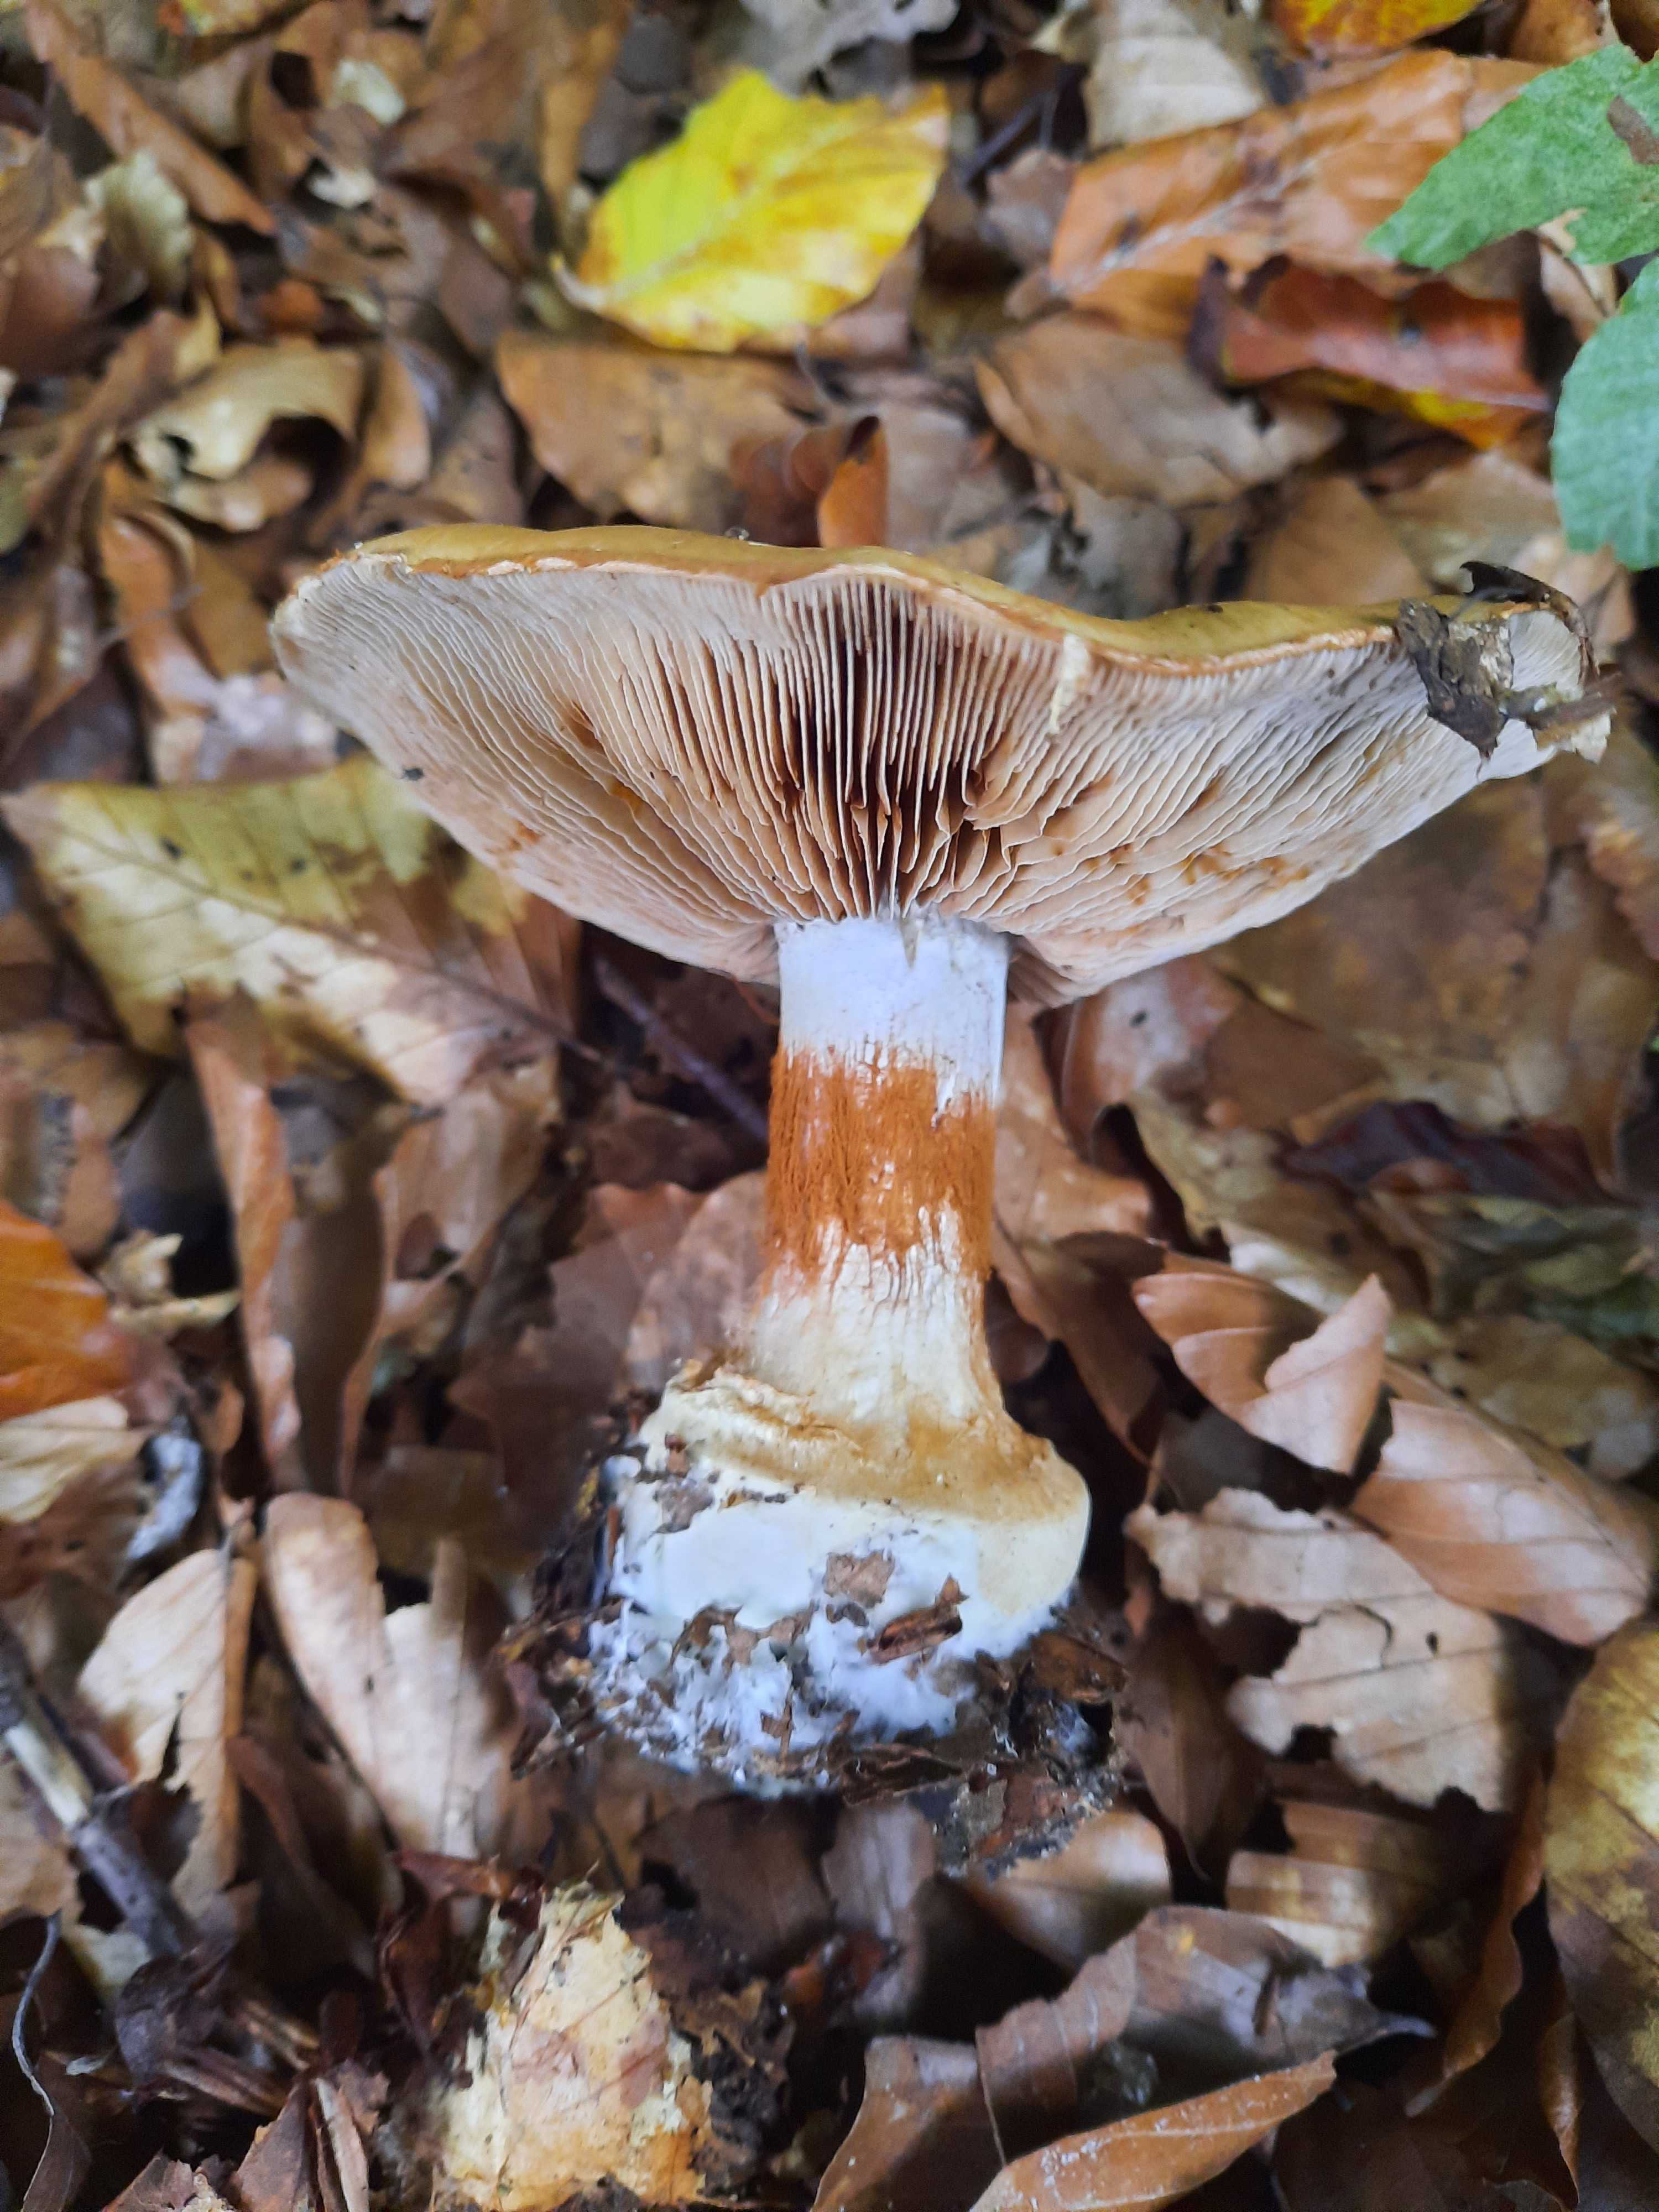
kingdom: Fungi
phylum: Basidiomycota
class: Agaricomycetes
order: Agaricales
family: Cortinariaceae
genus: Cortinarius
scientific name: Cortinarius
